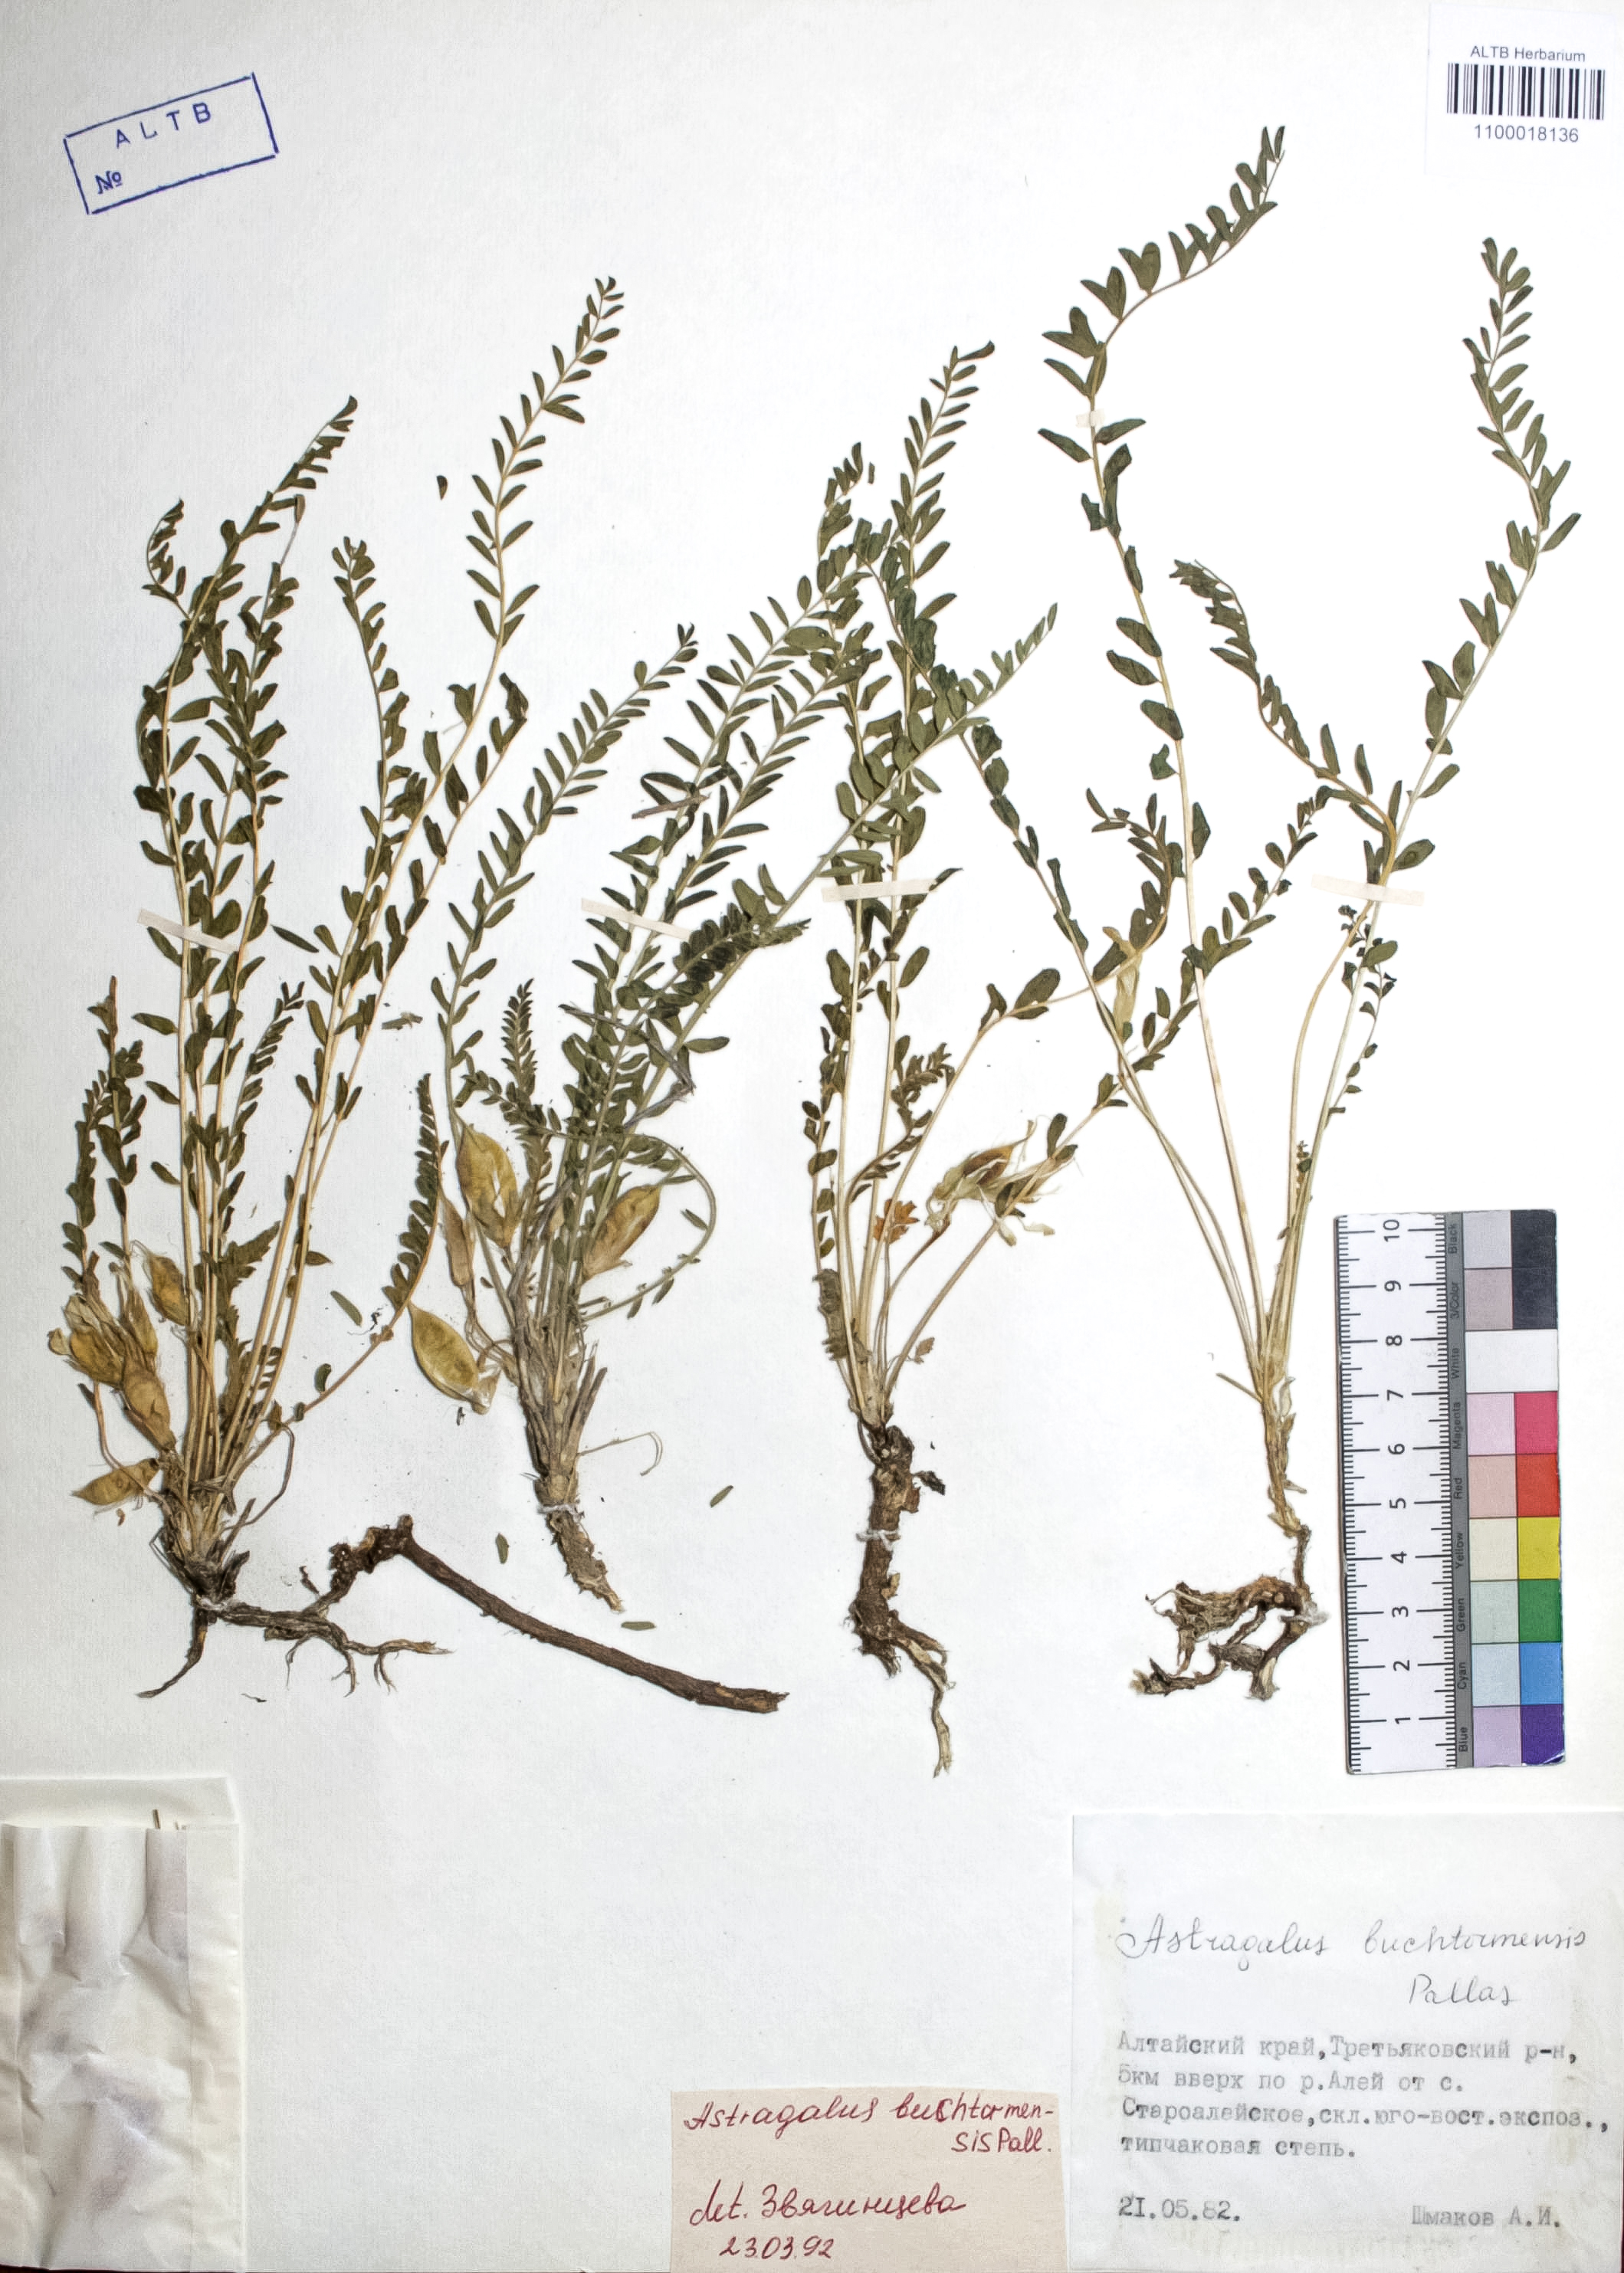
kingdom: Plantae
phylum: Tracheophyta
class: Magnoliopsida
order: Fabales
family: Fabaceae
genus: Astragalus
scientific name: Astragalus buchtormensis
